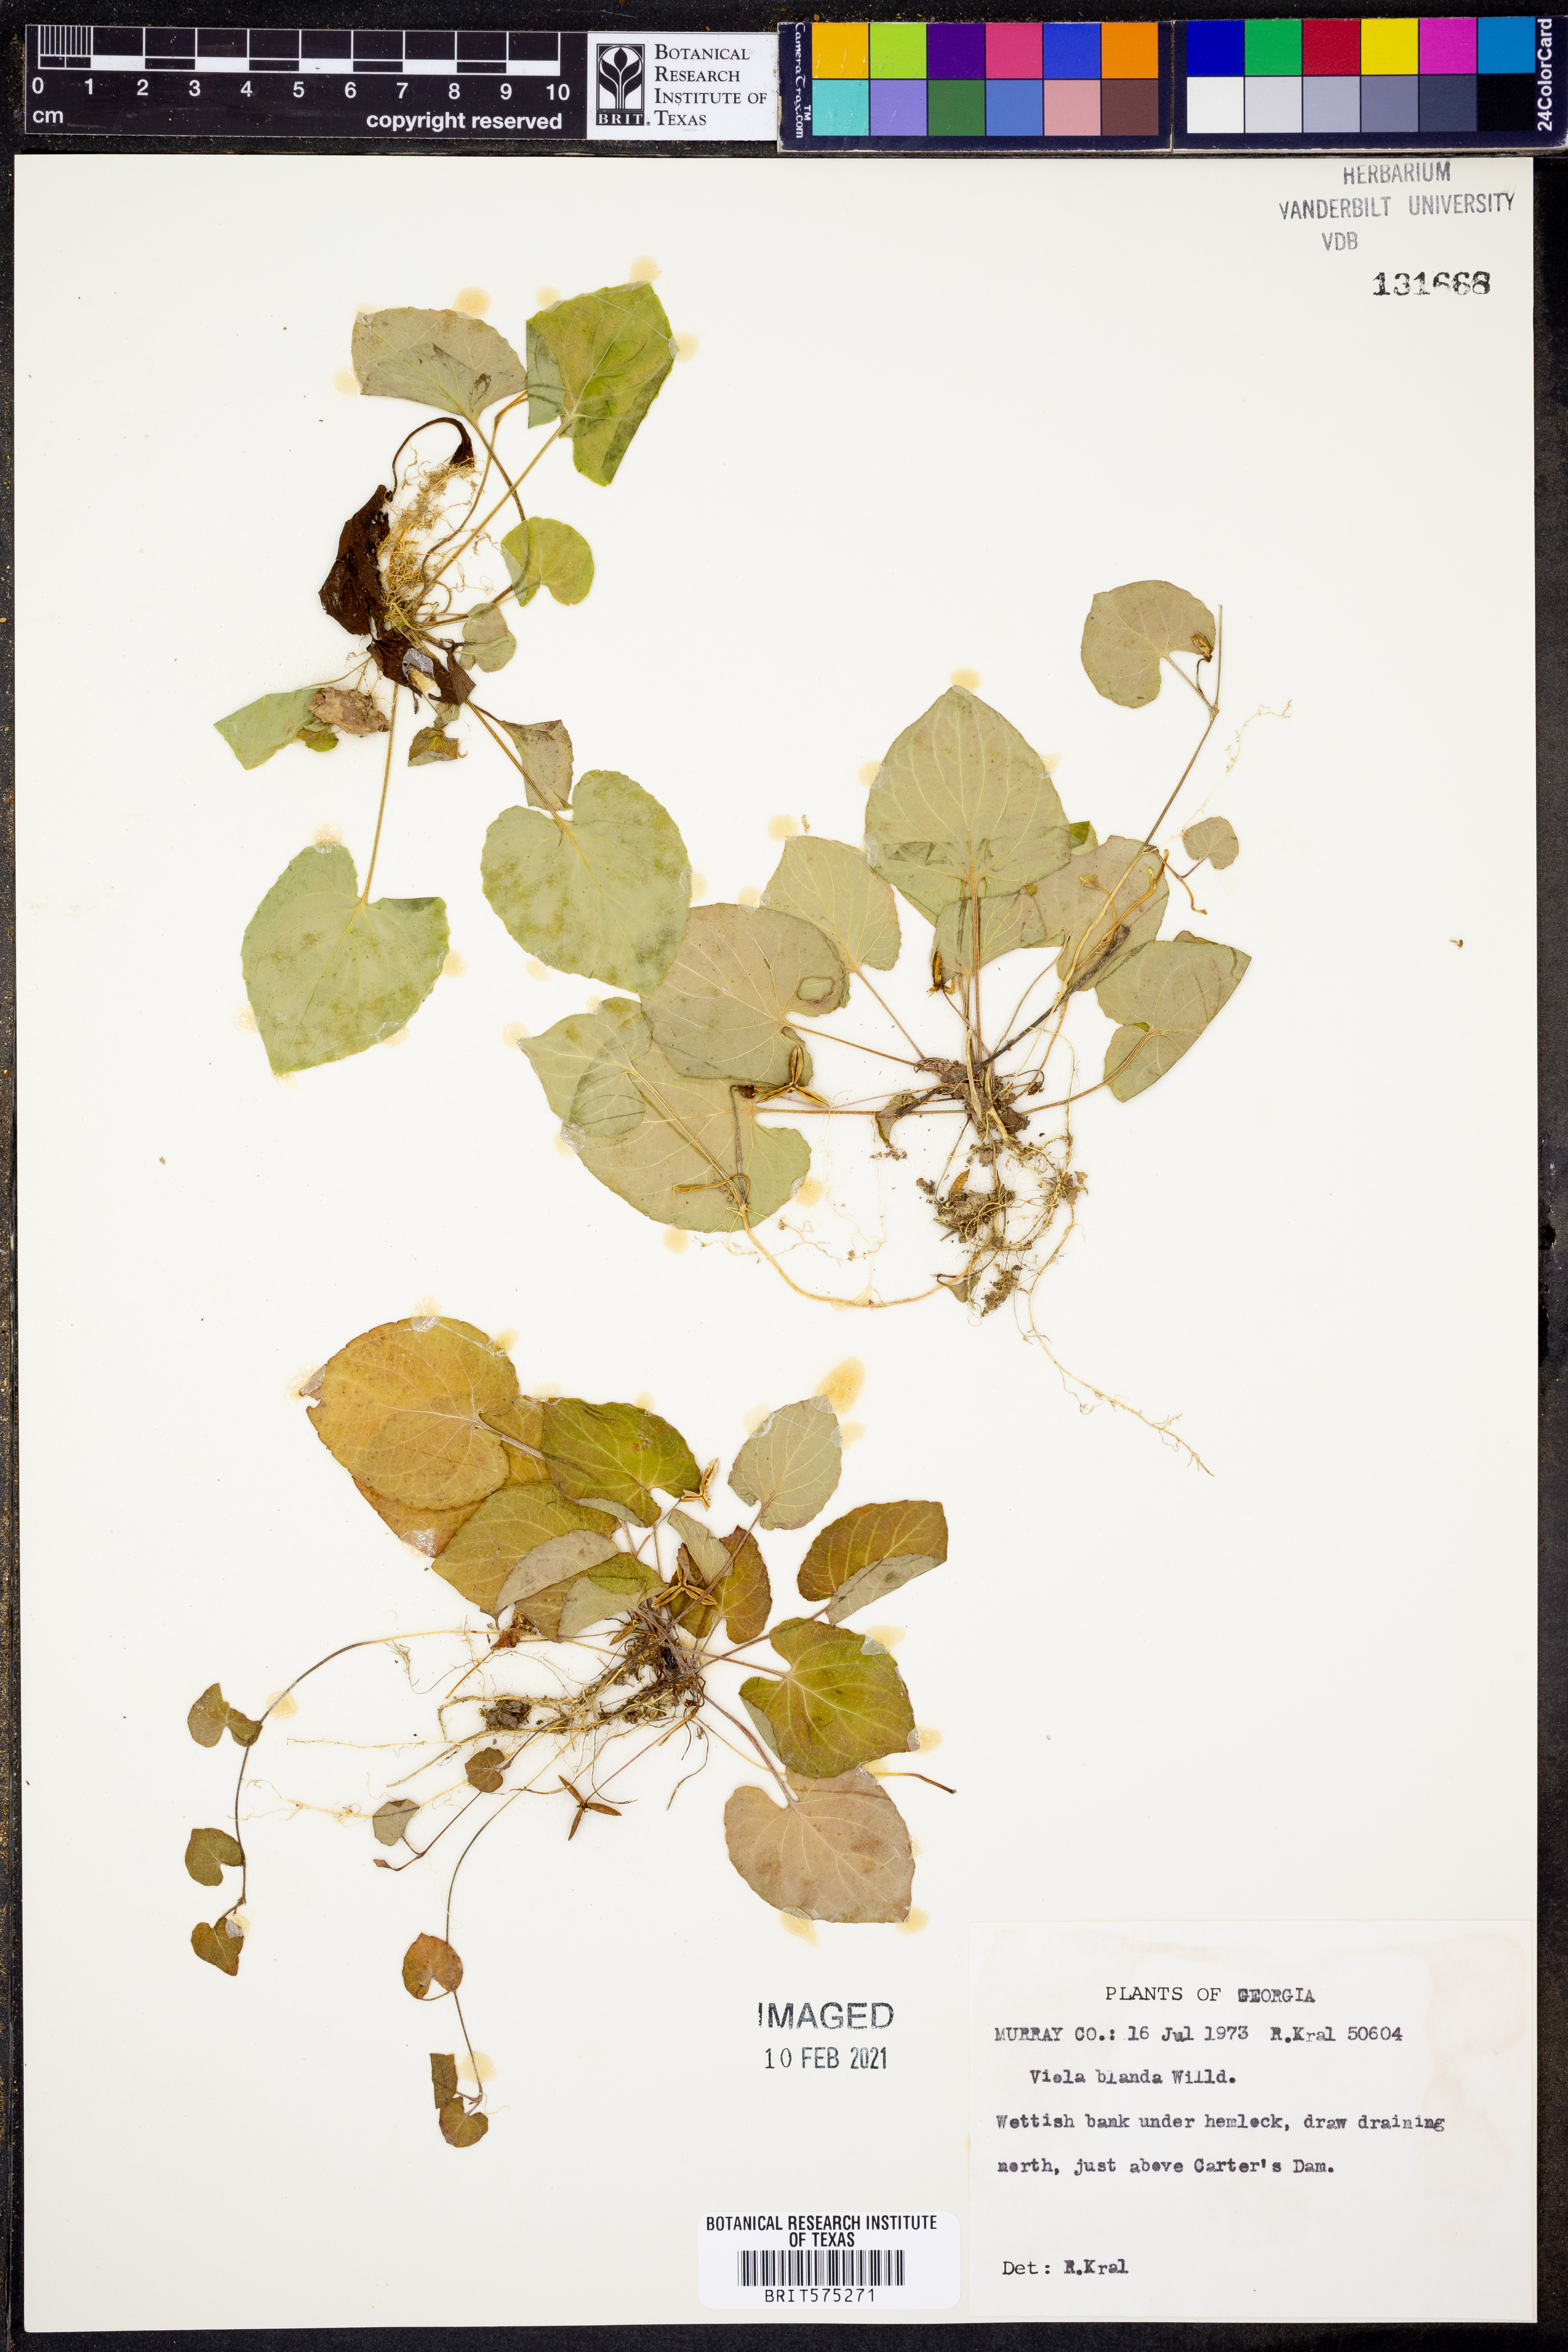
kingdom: Plantae
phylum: Tracheophyta
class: Magnoliopsida
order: Malpighiales
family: Violaceae
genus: Viola
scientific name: Viola blanda
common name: Sweet white violet
